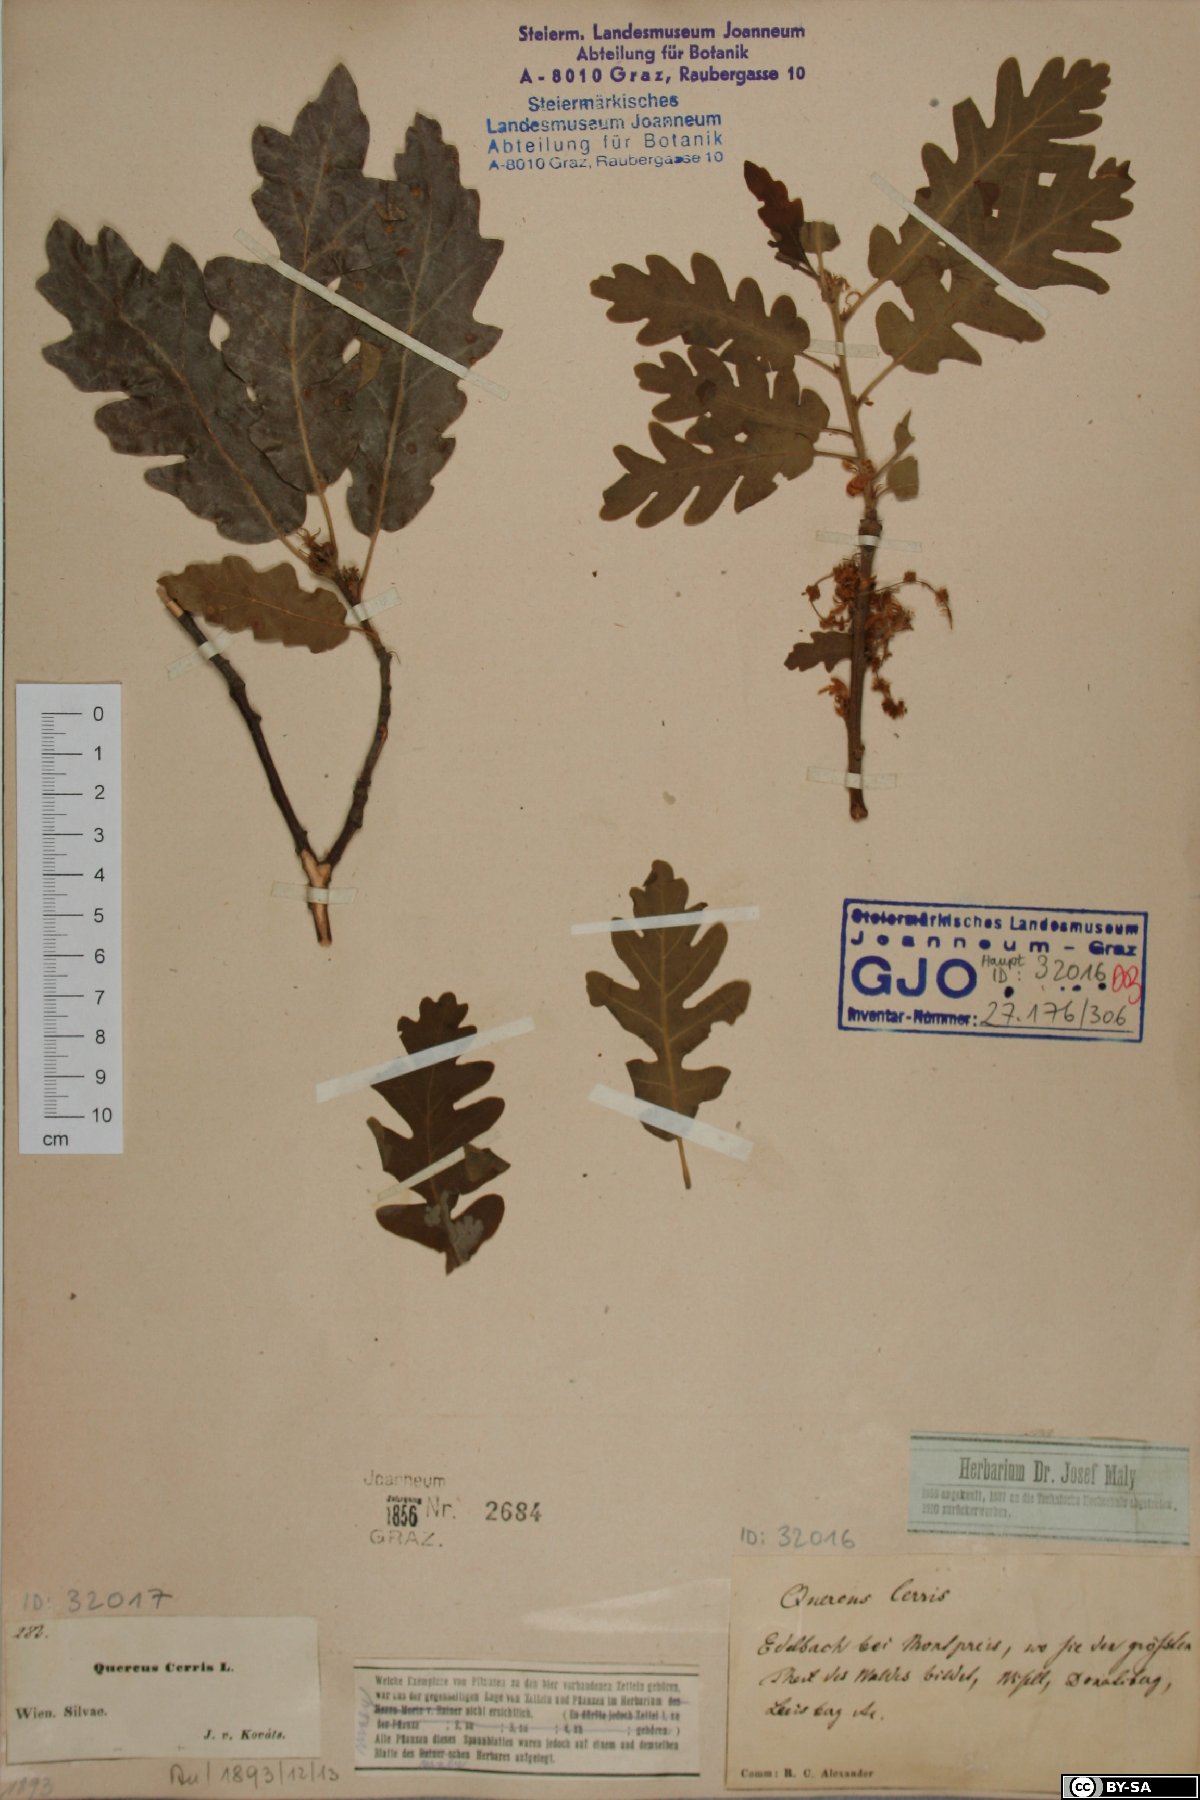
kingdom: Plantae
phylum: Tracheophyta
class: Magnoliopsida
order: Fagales
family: Fagaceae
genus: Quercus
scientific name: Quercus cerris
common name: Turkey oak
